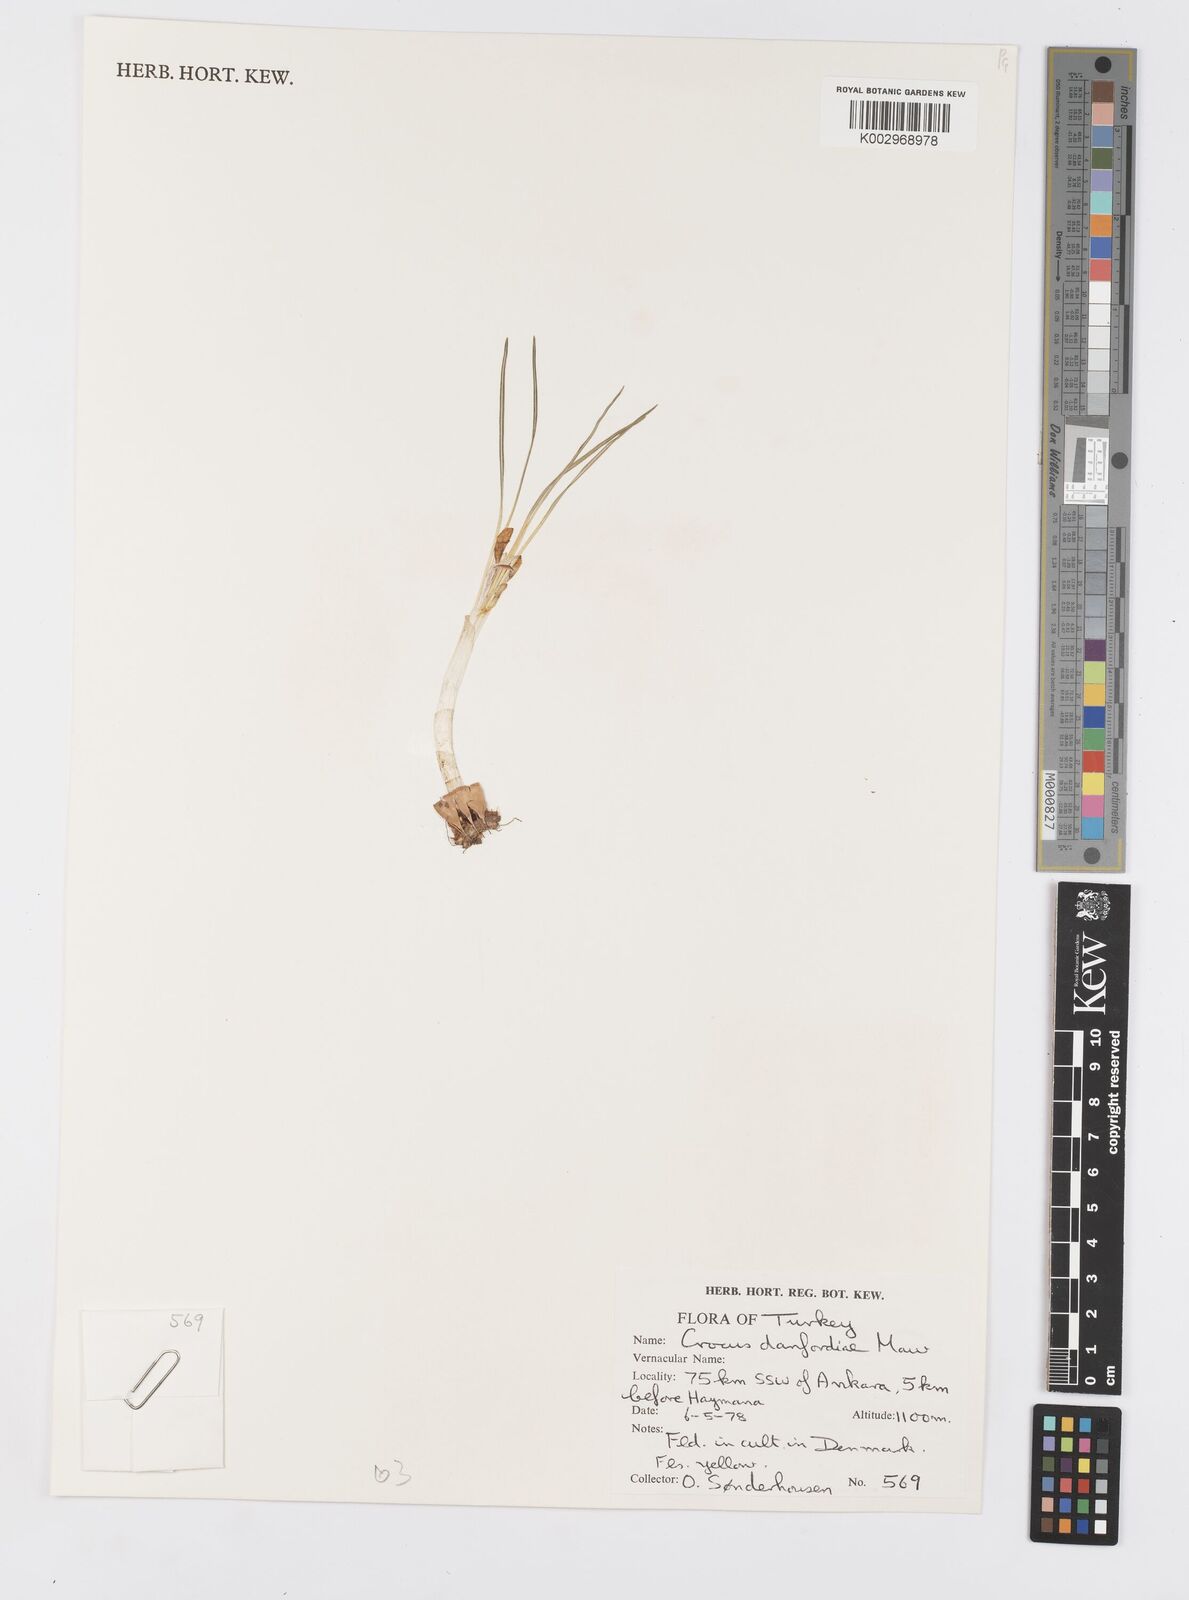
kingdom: Plantae
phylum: Tracheophyta
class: Liliopsida
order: Asparagales
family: Iridaceae
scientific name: Iridaceae
